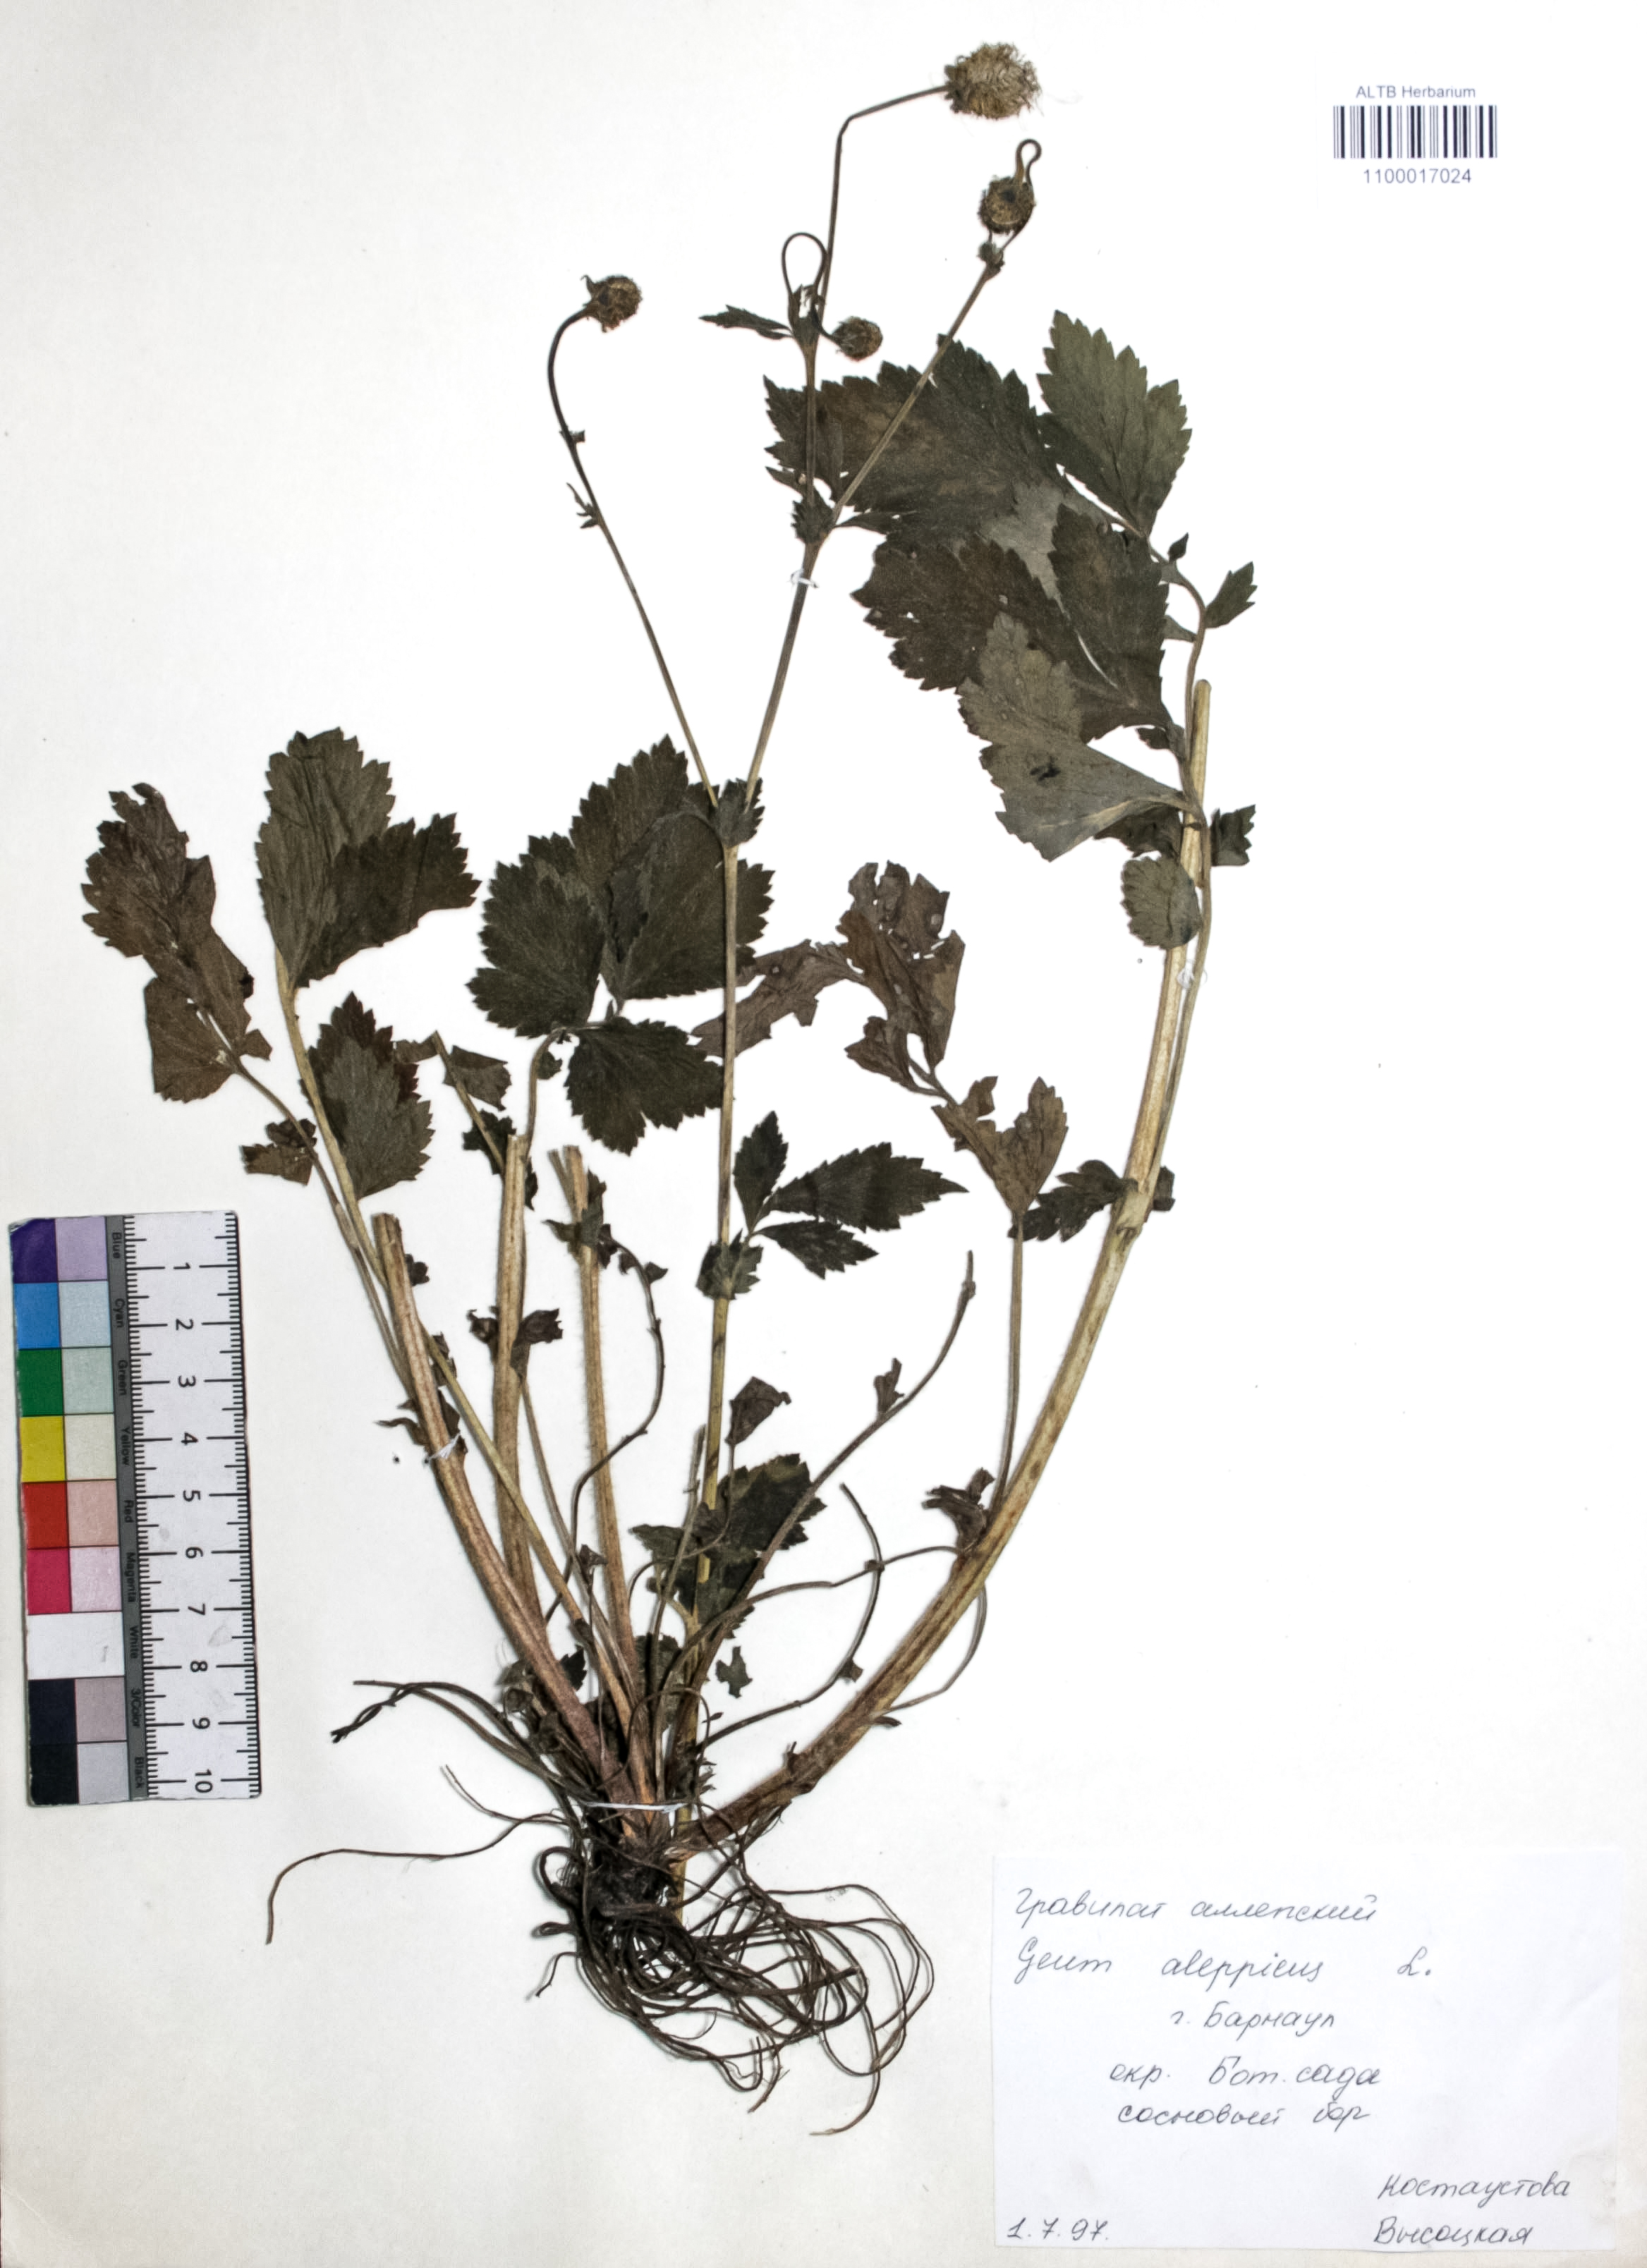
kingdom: Plantae
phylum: Tracheophyta
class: Magnoliopsida
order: Rosales
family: Rosaceae
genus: Geum
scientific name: Geum aleppicum
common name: Yellow avens
